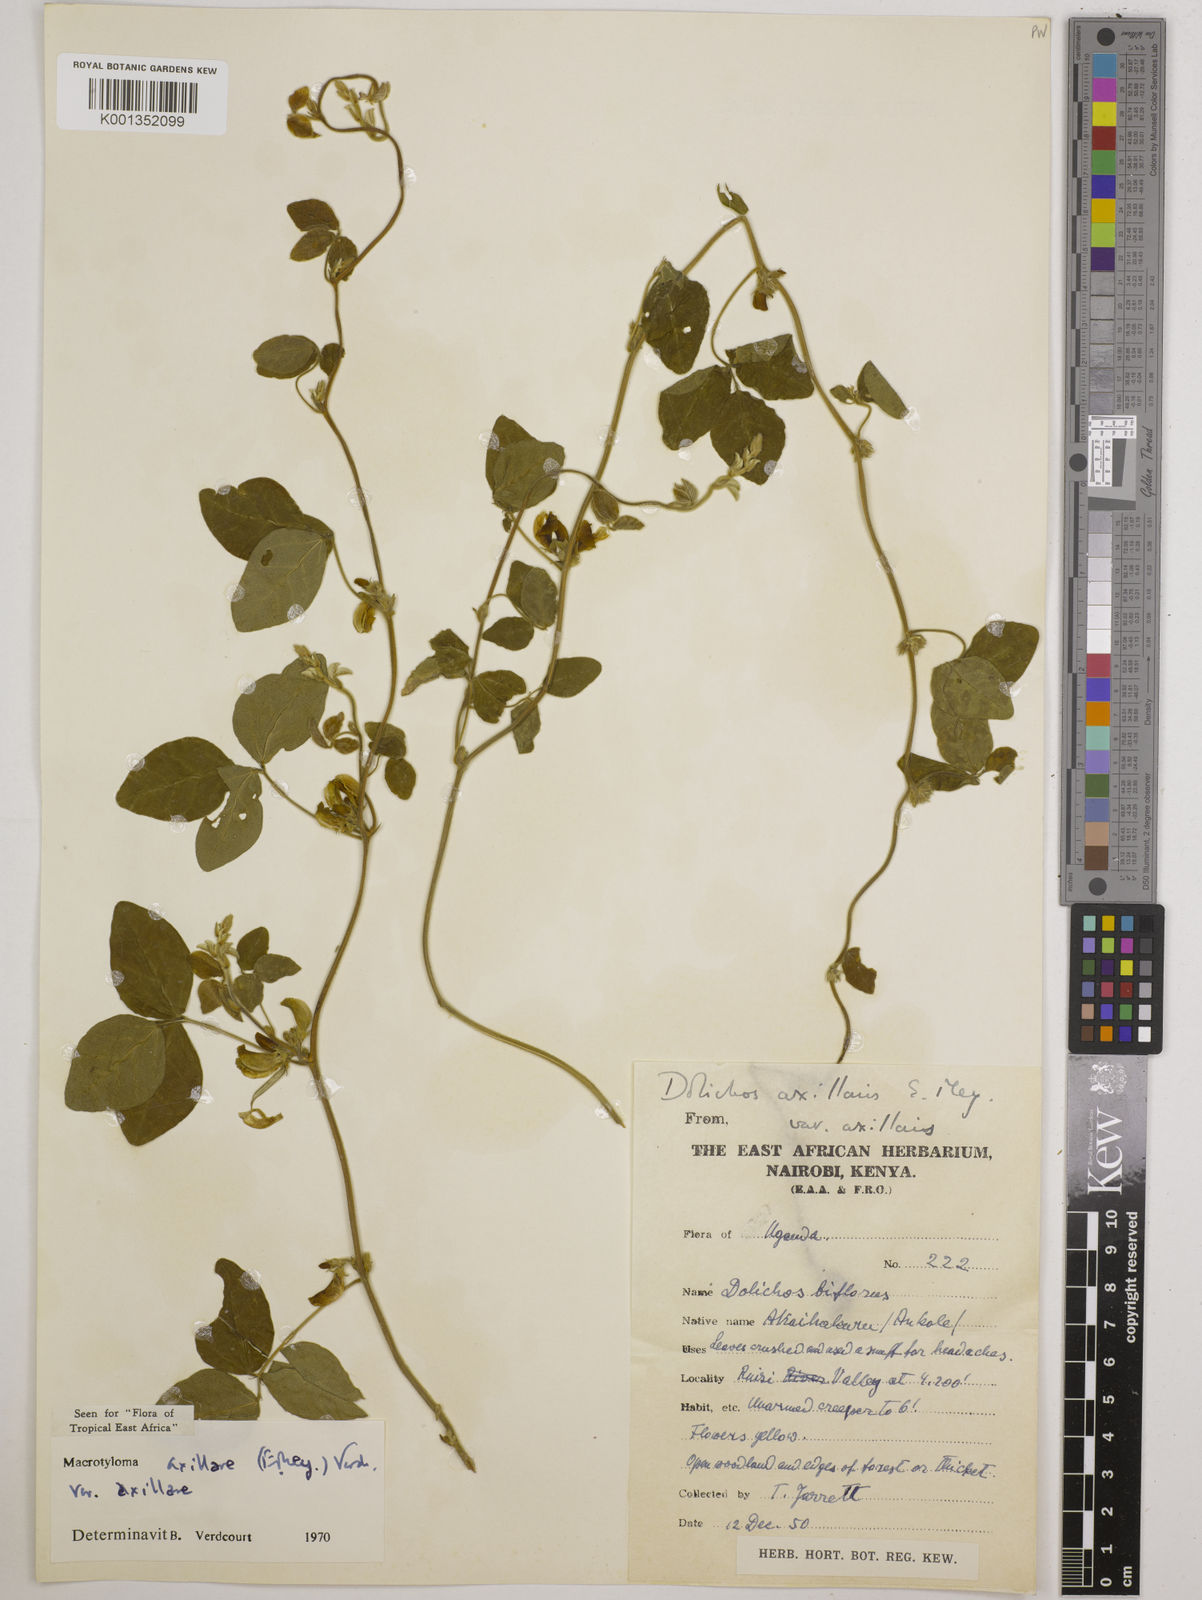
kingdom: Plantae
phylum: Tracheophyta
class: Magnoliopsida
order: Fabales
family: Fabaceae
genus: Macrotyloma
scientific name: Macrotyloma axillare
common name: Perennial horsegram
